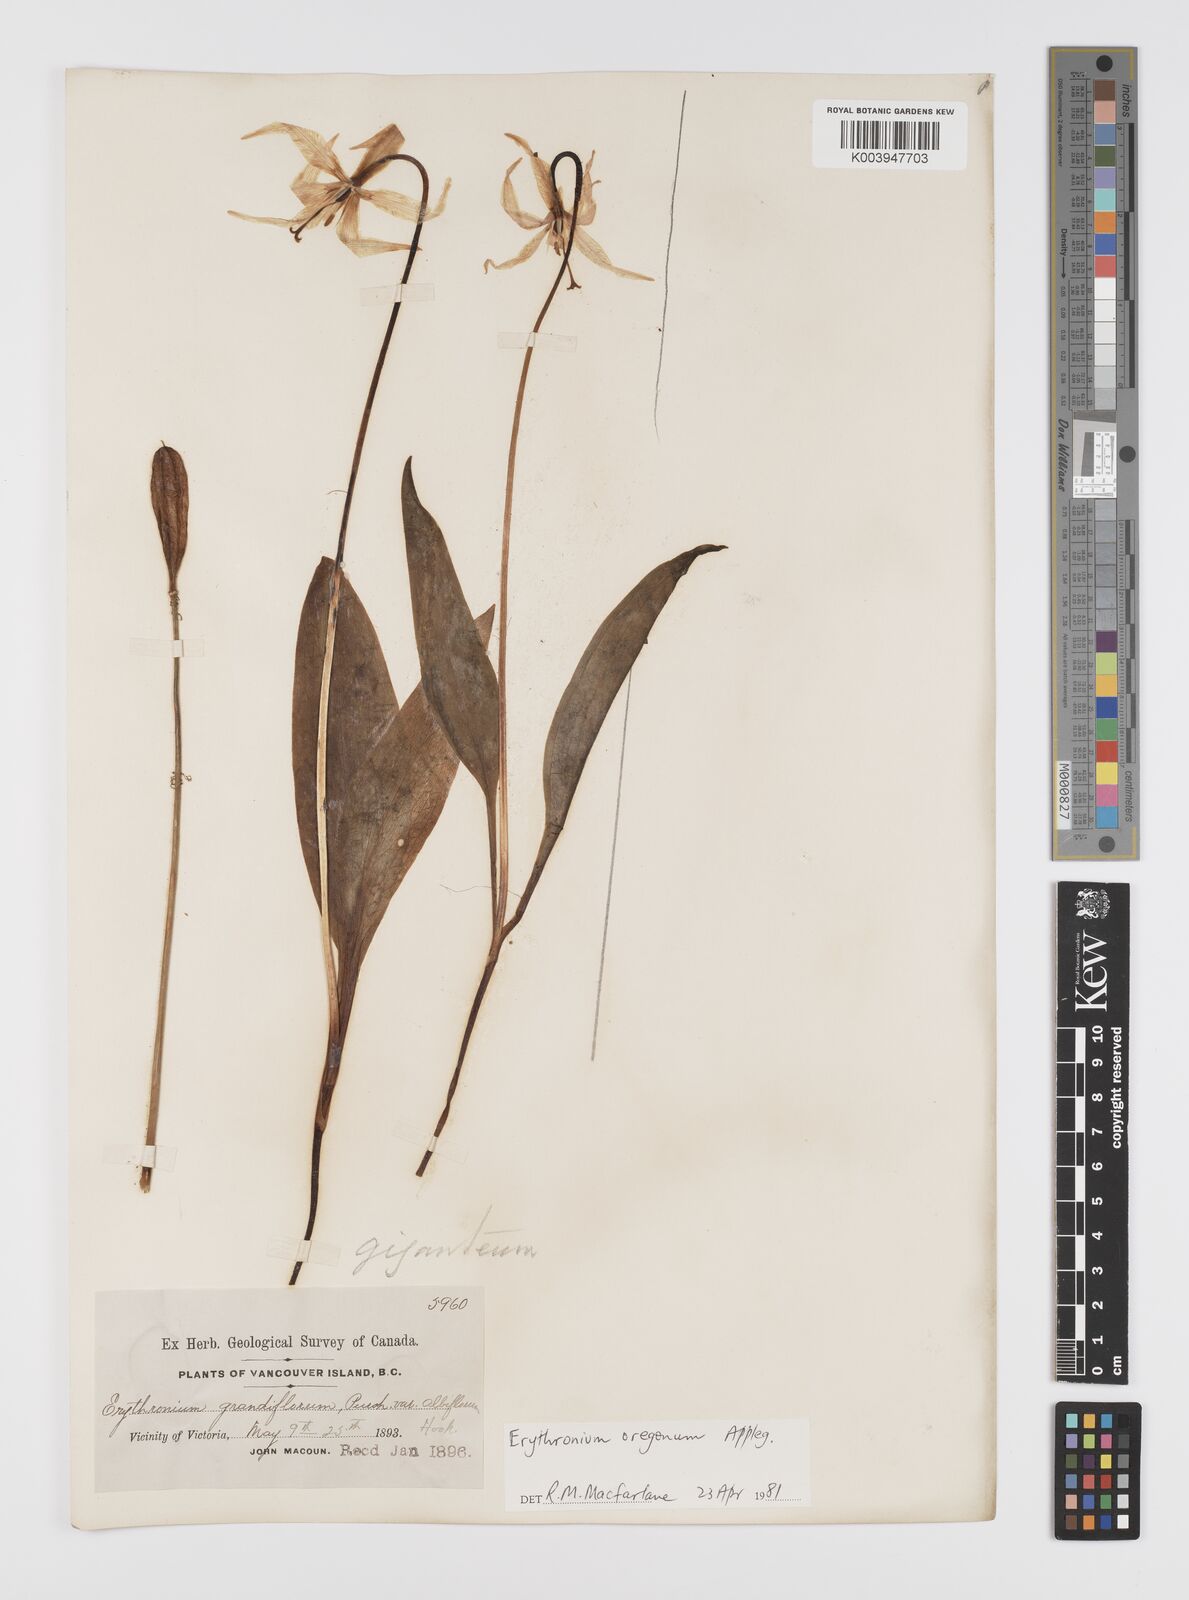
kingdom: Plantae
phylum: Tracheophyta
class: Liliopsida
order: Liliales
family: Liliaceae
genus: Erythronium
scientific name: Erythronium oregonum
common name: Giant adder's-tongue
